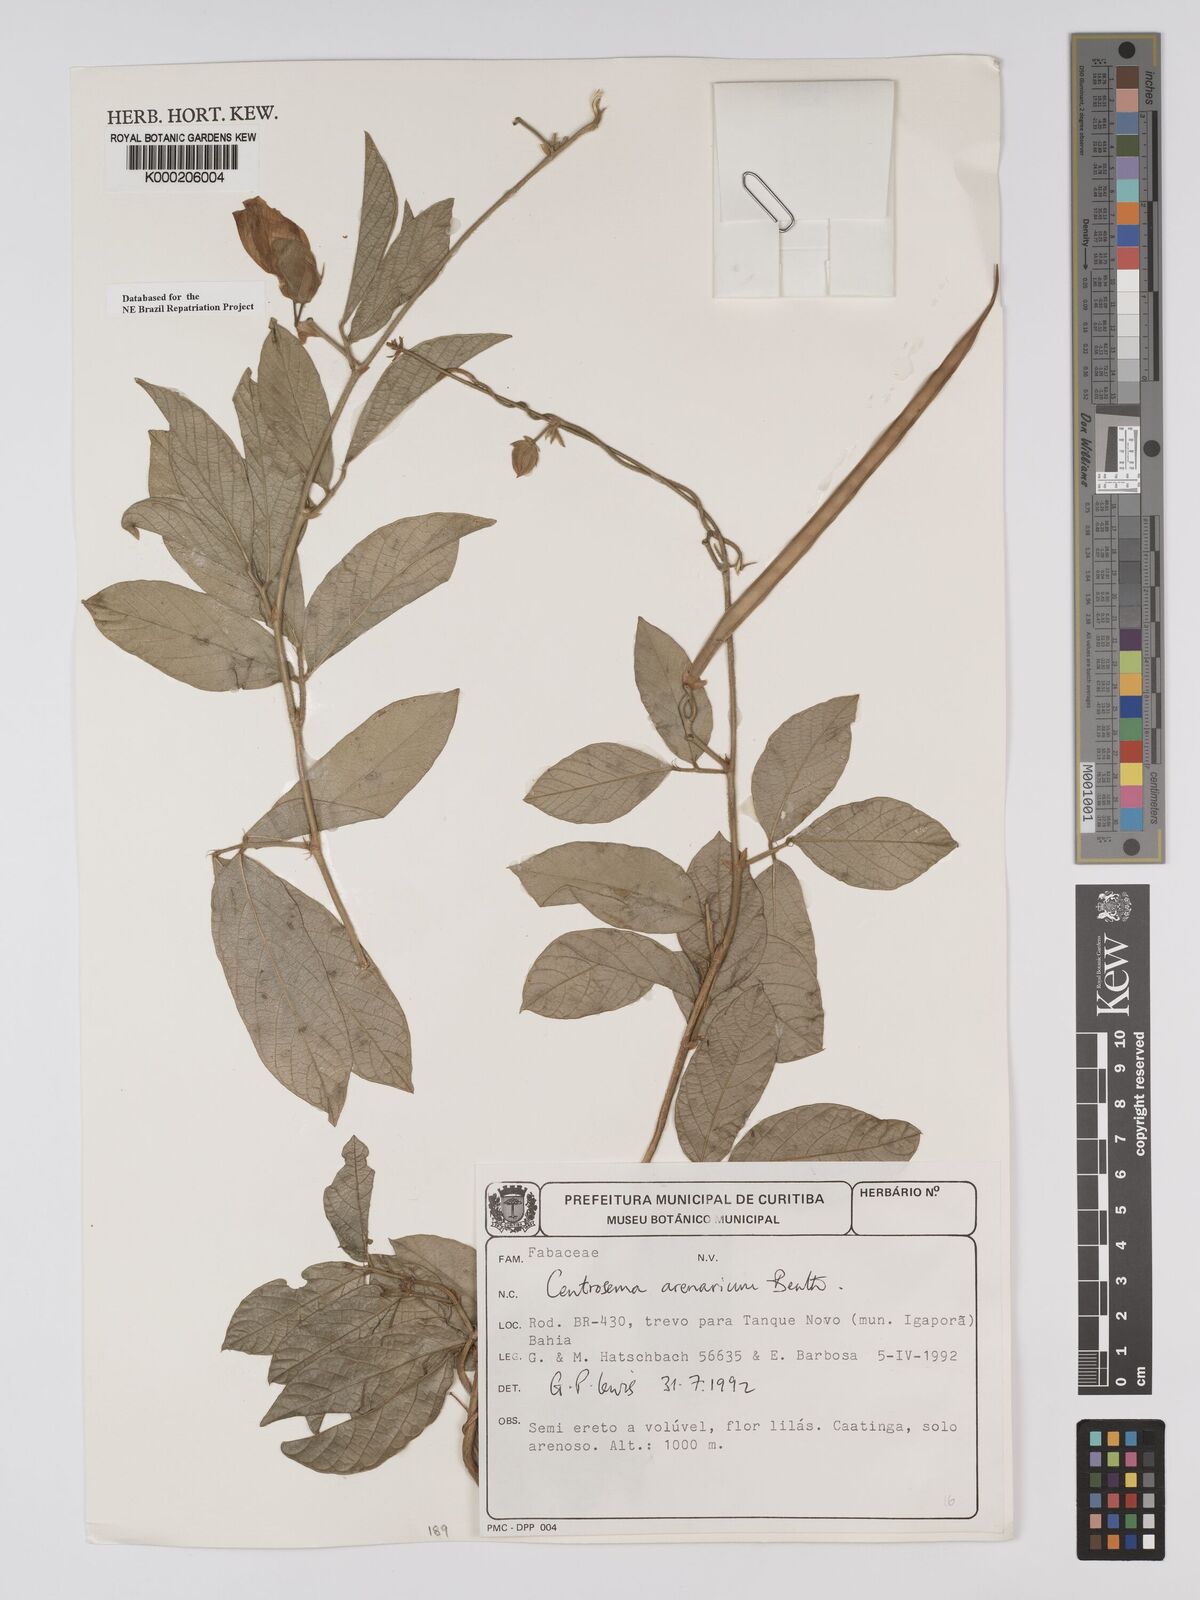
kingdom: Plantae
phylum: Tracheophyta
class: Magnoliopsida
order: Fabales
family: Fabaceae
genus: Centrosema
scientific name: Centrosema arenarium
